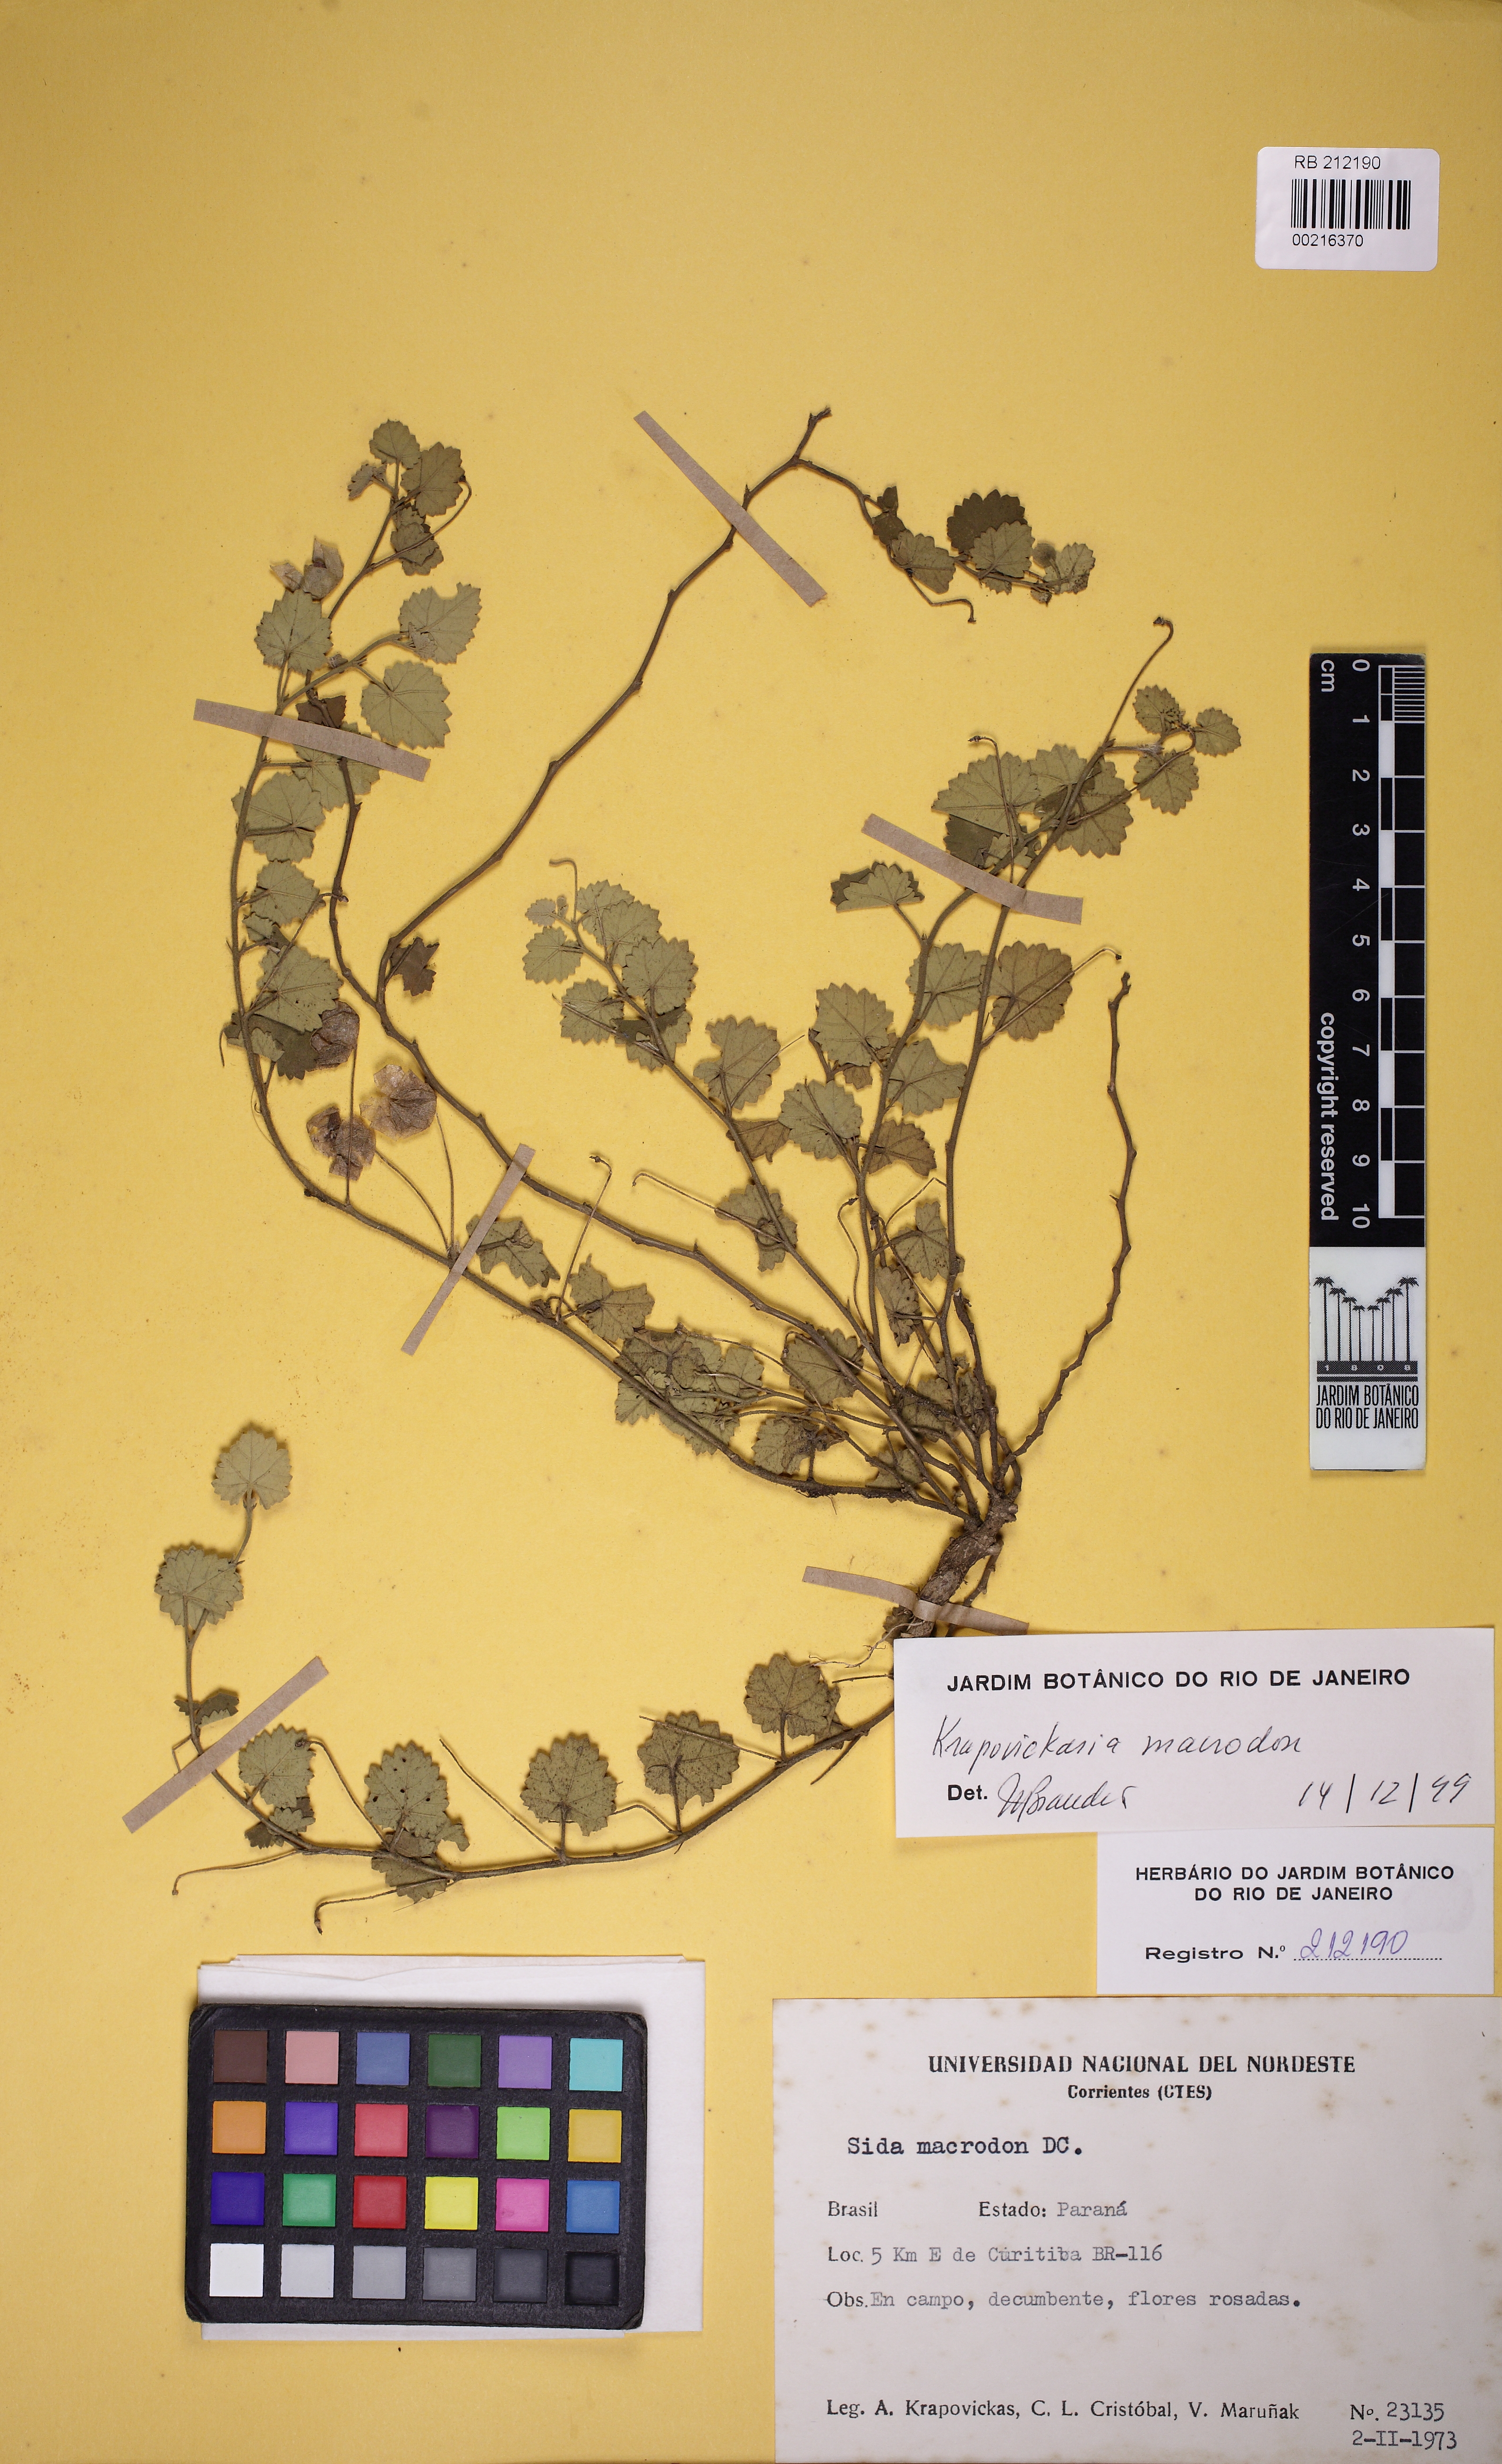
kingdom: Plantae
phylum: Tracheophyta
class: Magnoliopsida
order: Malvales
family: Malvaceae
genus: Krapovickasia
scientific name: Krapovickasia macrodon
